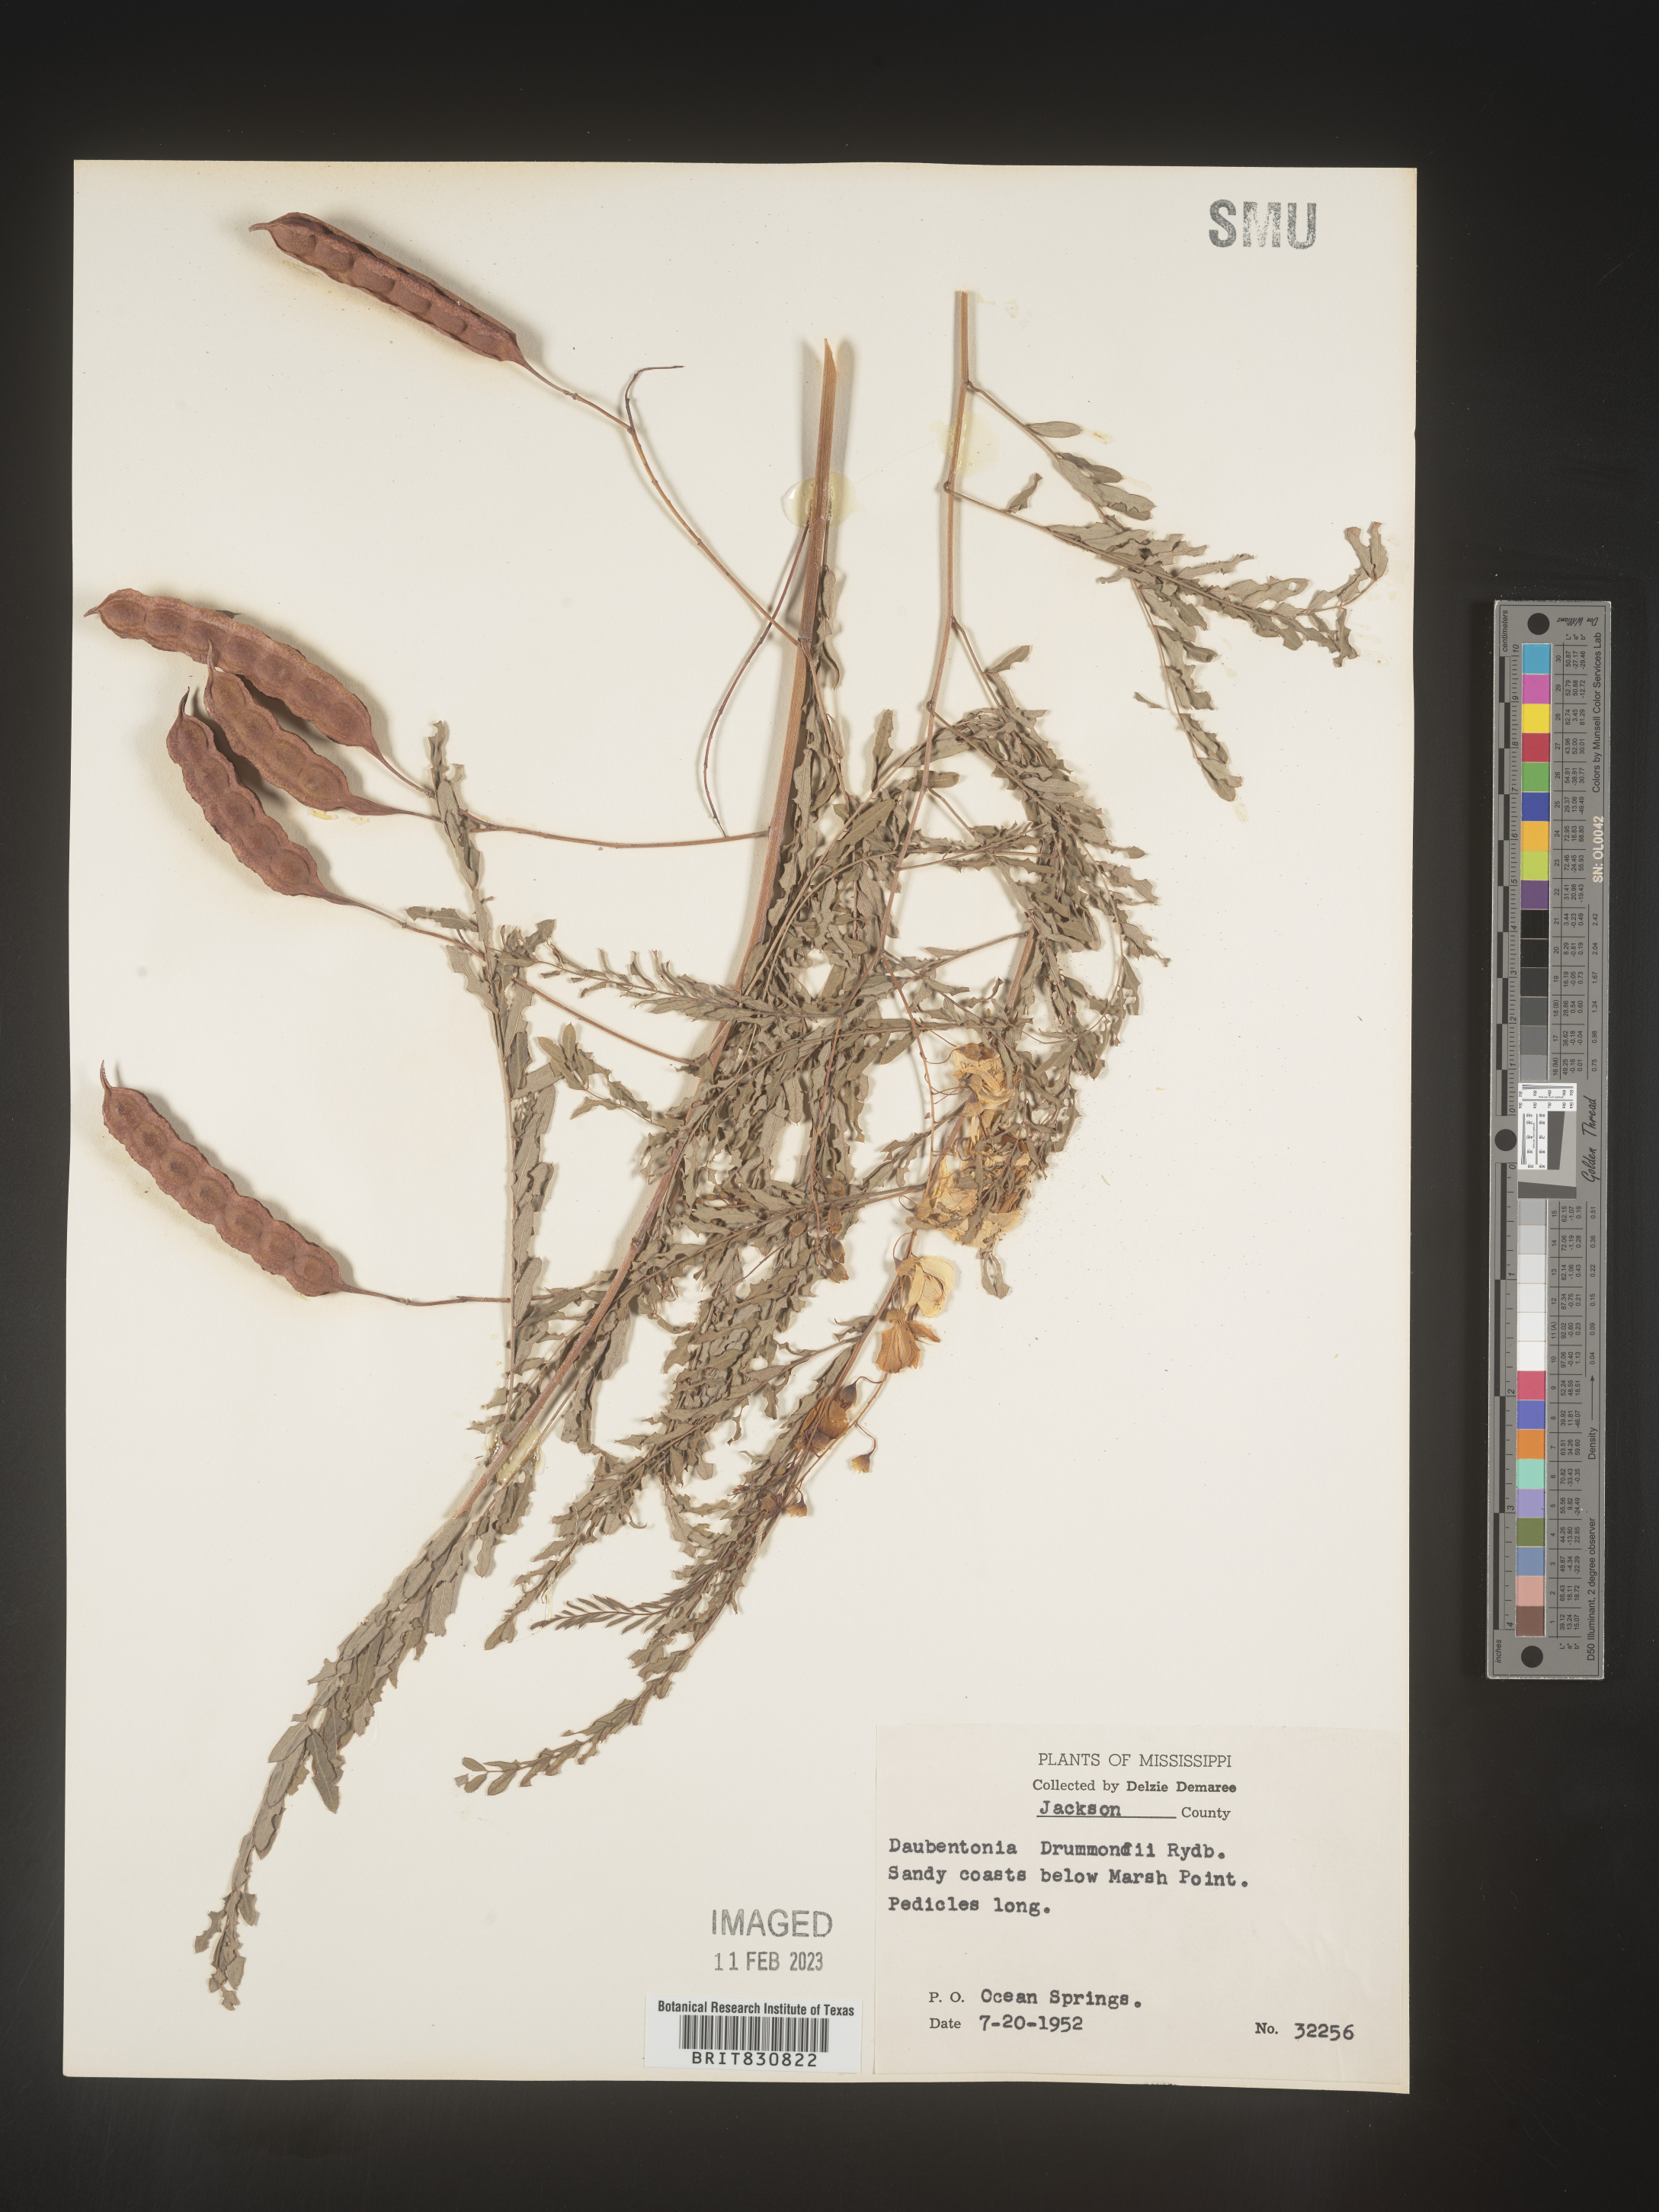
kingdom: Plantae
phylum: Tracheophyta
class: Magnoliopsida
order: Fabales
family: Fabaceae
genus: Sesbania
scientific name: Sesbania drummondii
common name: Poison-bean
